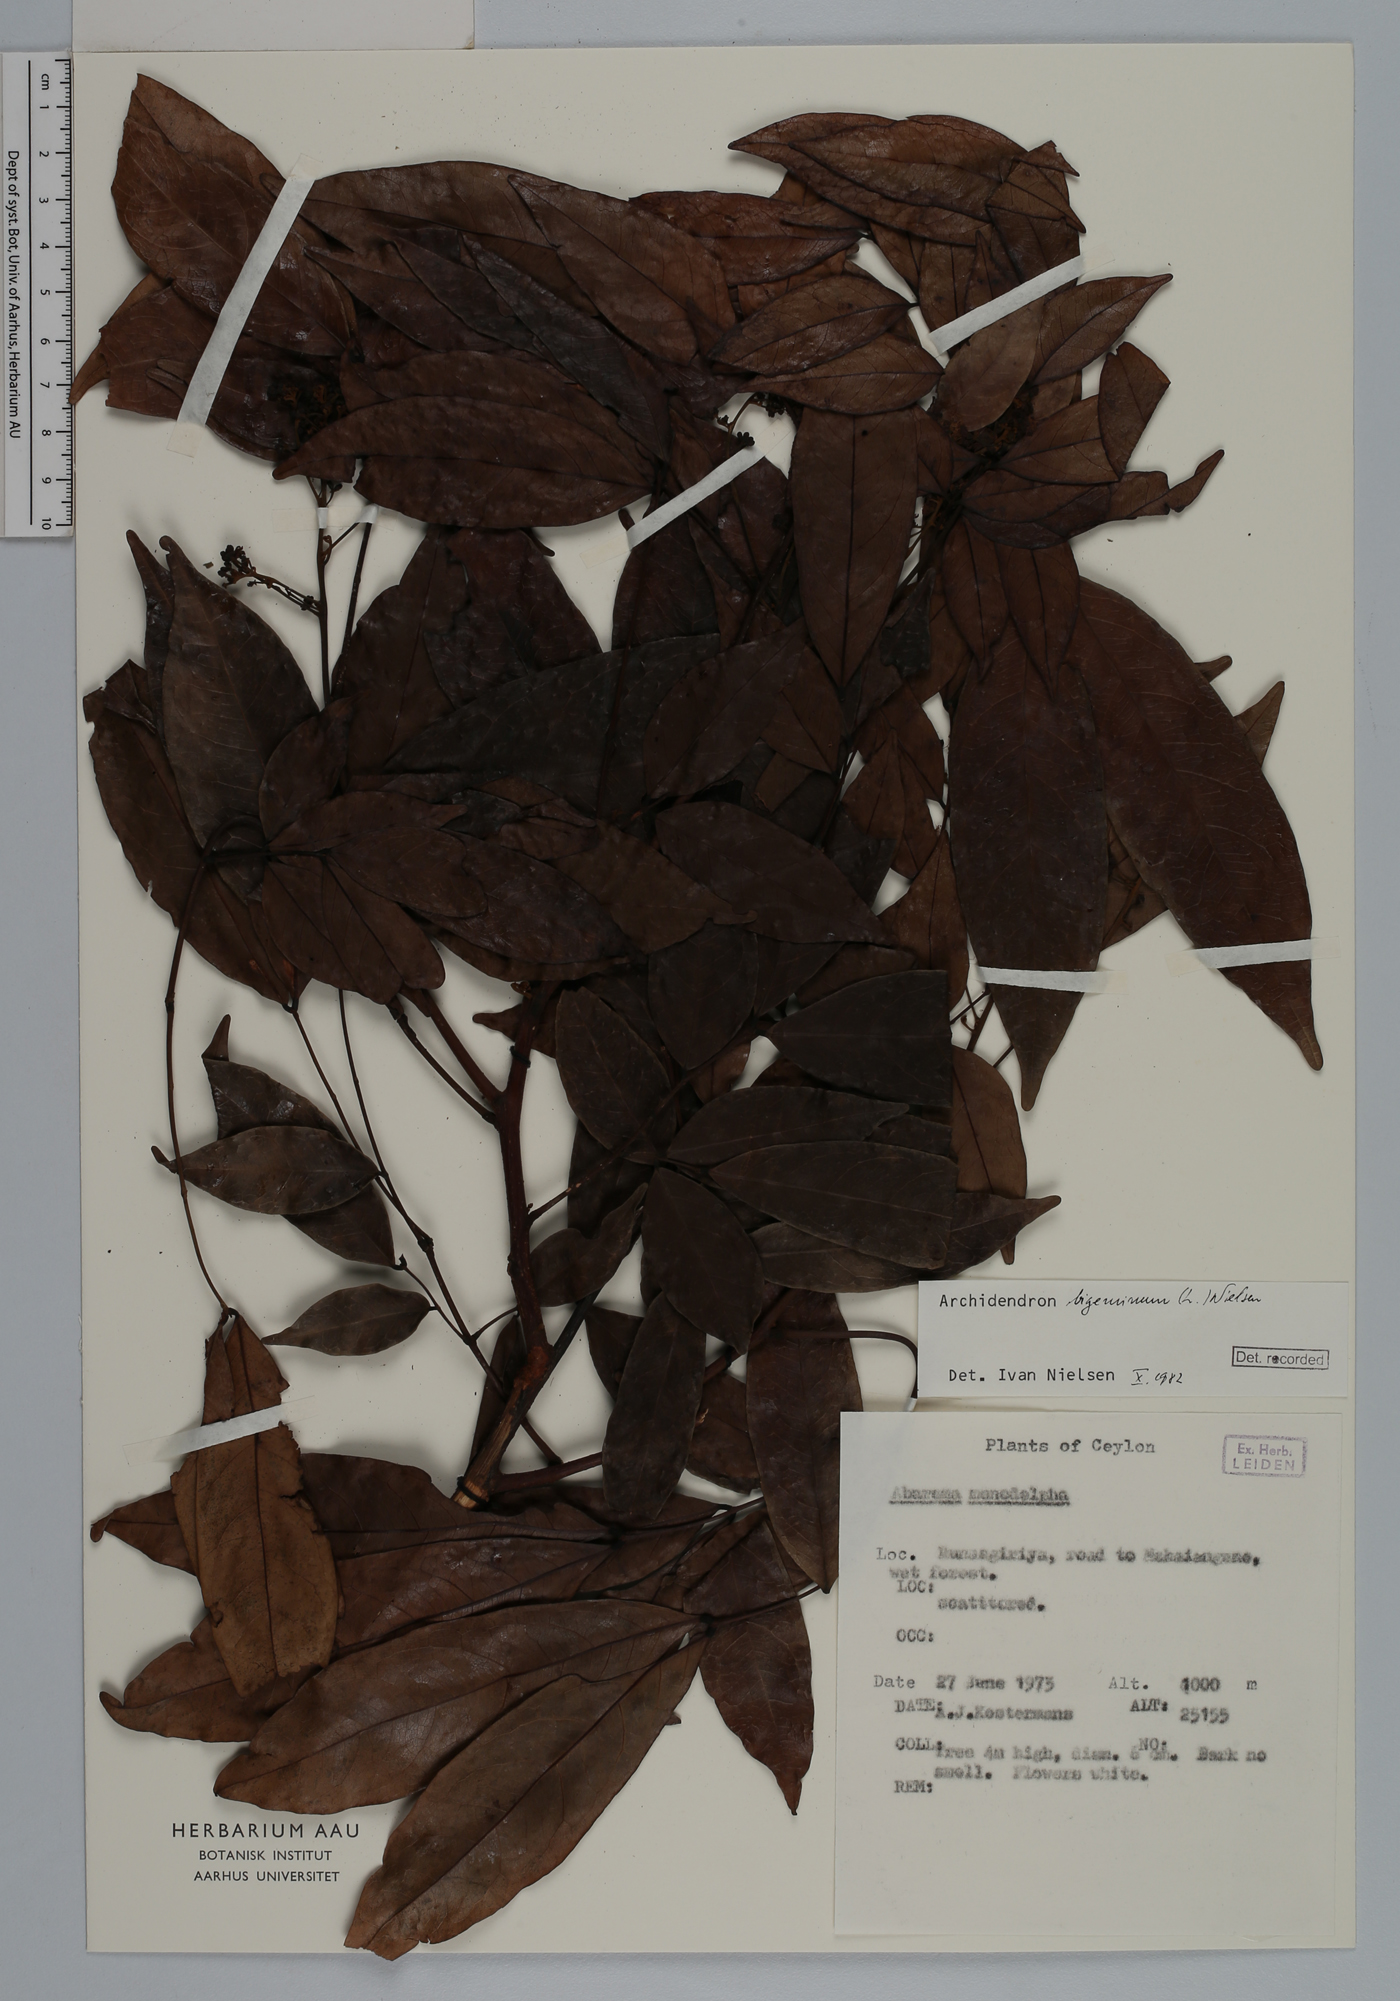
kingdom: Plantae
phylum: Tracheophyta
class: Magnoliopsida
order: Fabales
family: Fabaceae
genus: Archidendron
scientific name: Archidendron bigeminum
